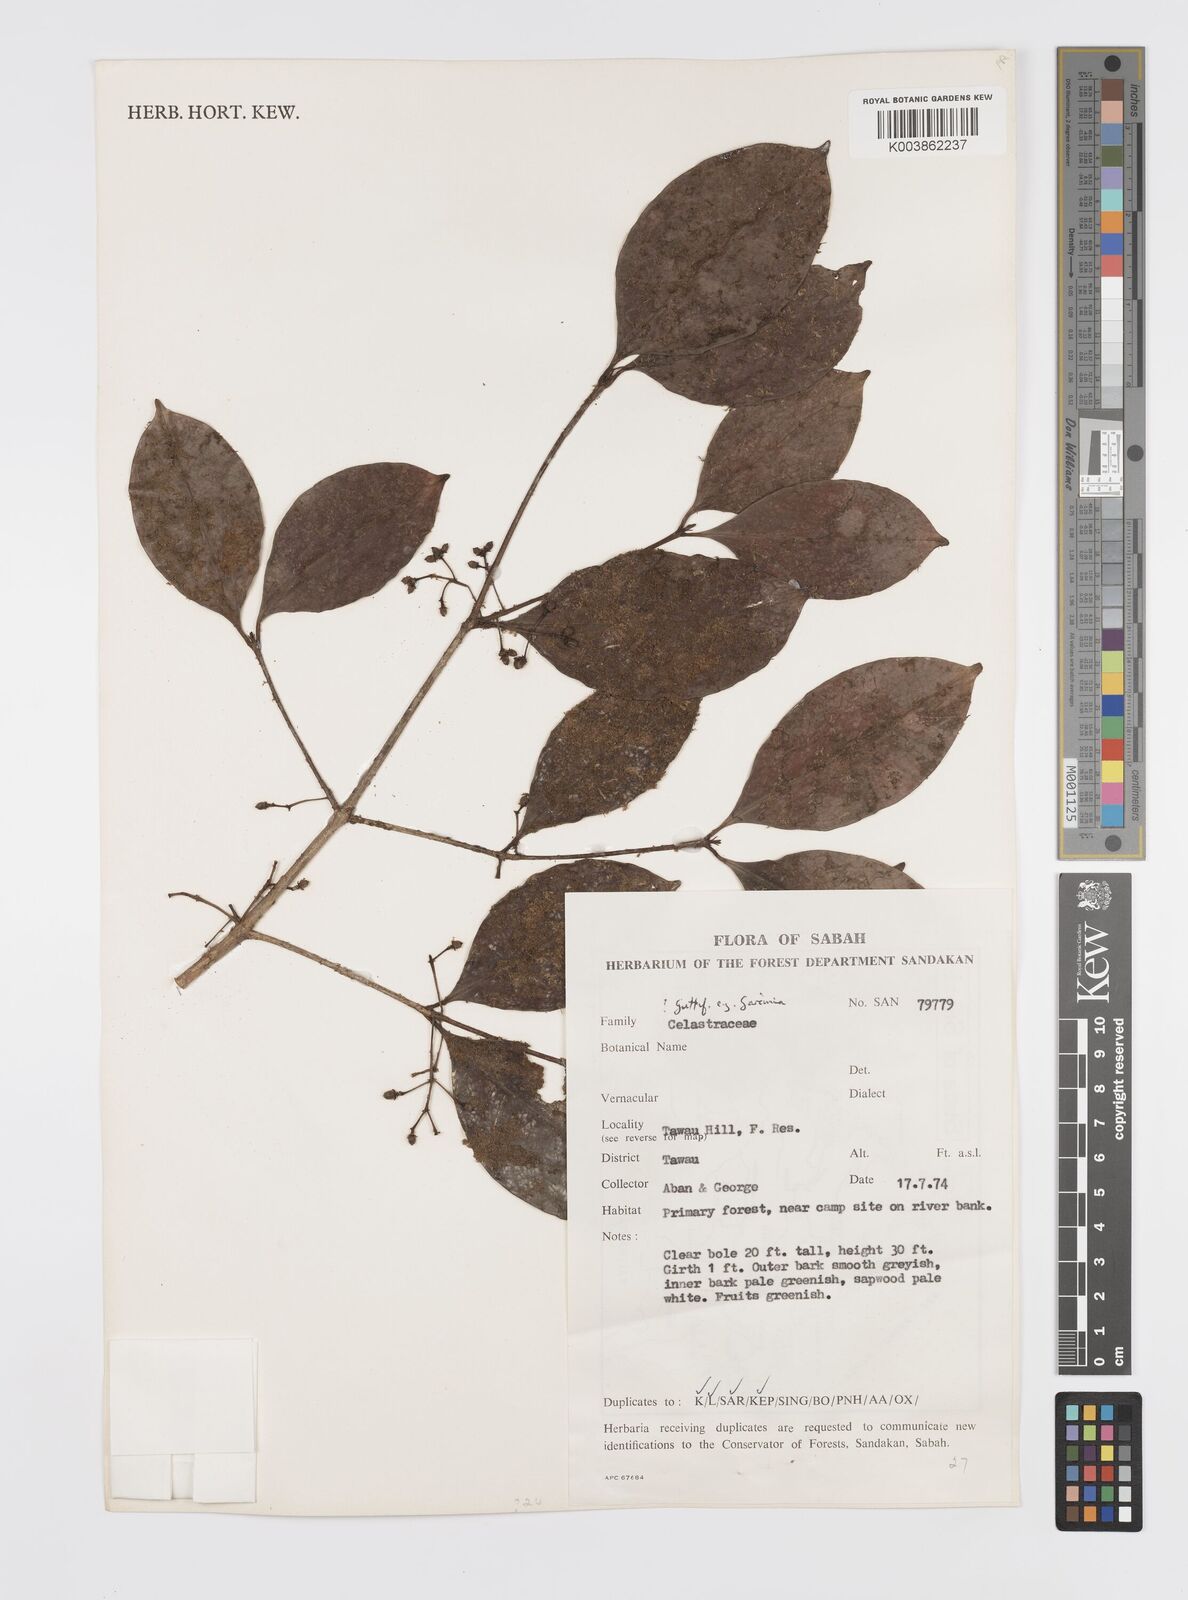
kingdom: Plantae
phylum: Tracheophyta
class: Magnoliopsida
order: Malpighiales
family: Clusiaceae
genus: Garcinia
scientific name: Garcinia
